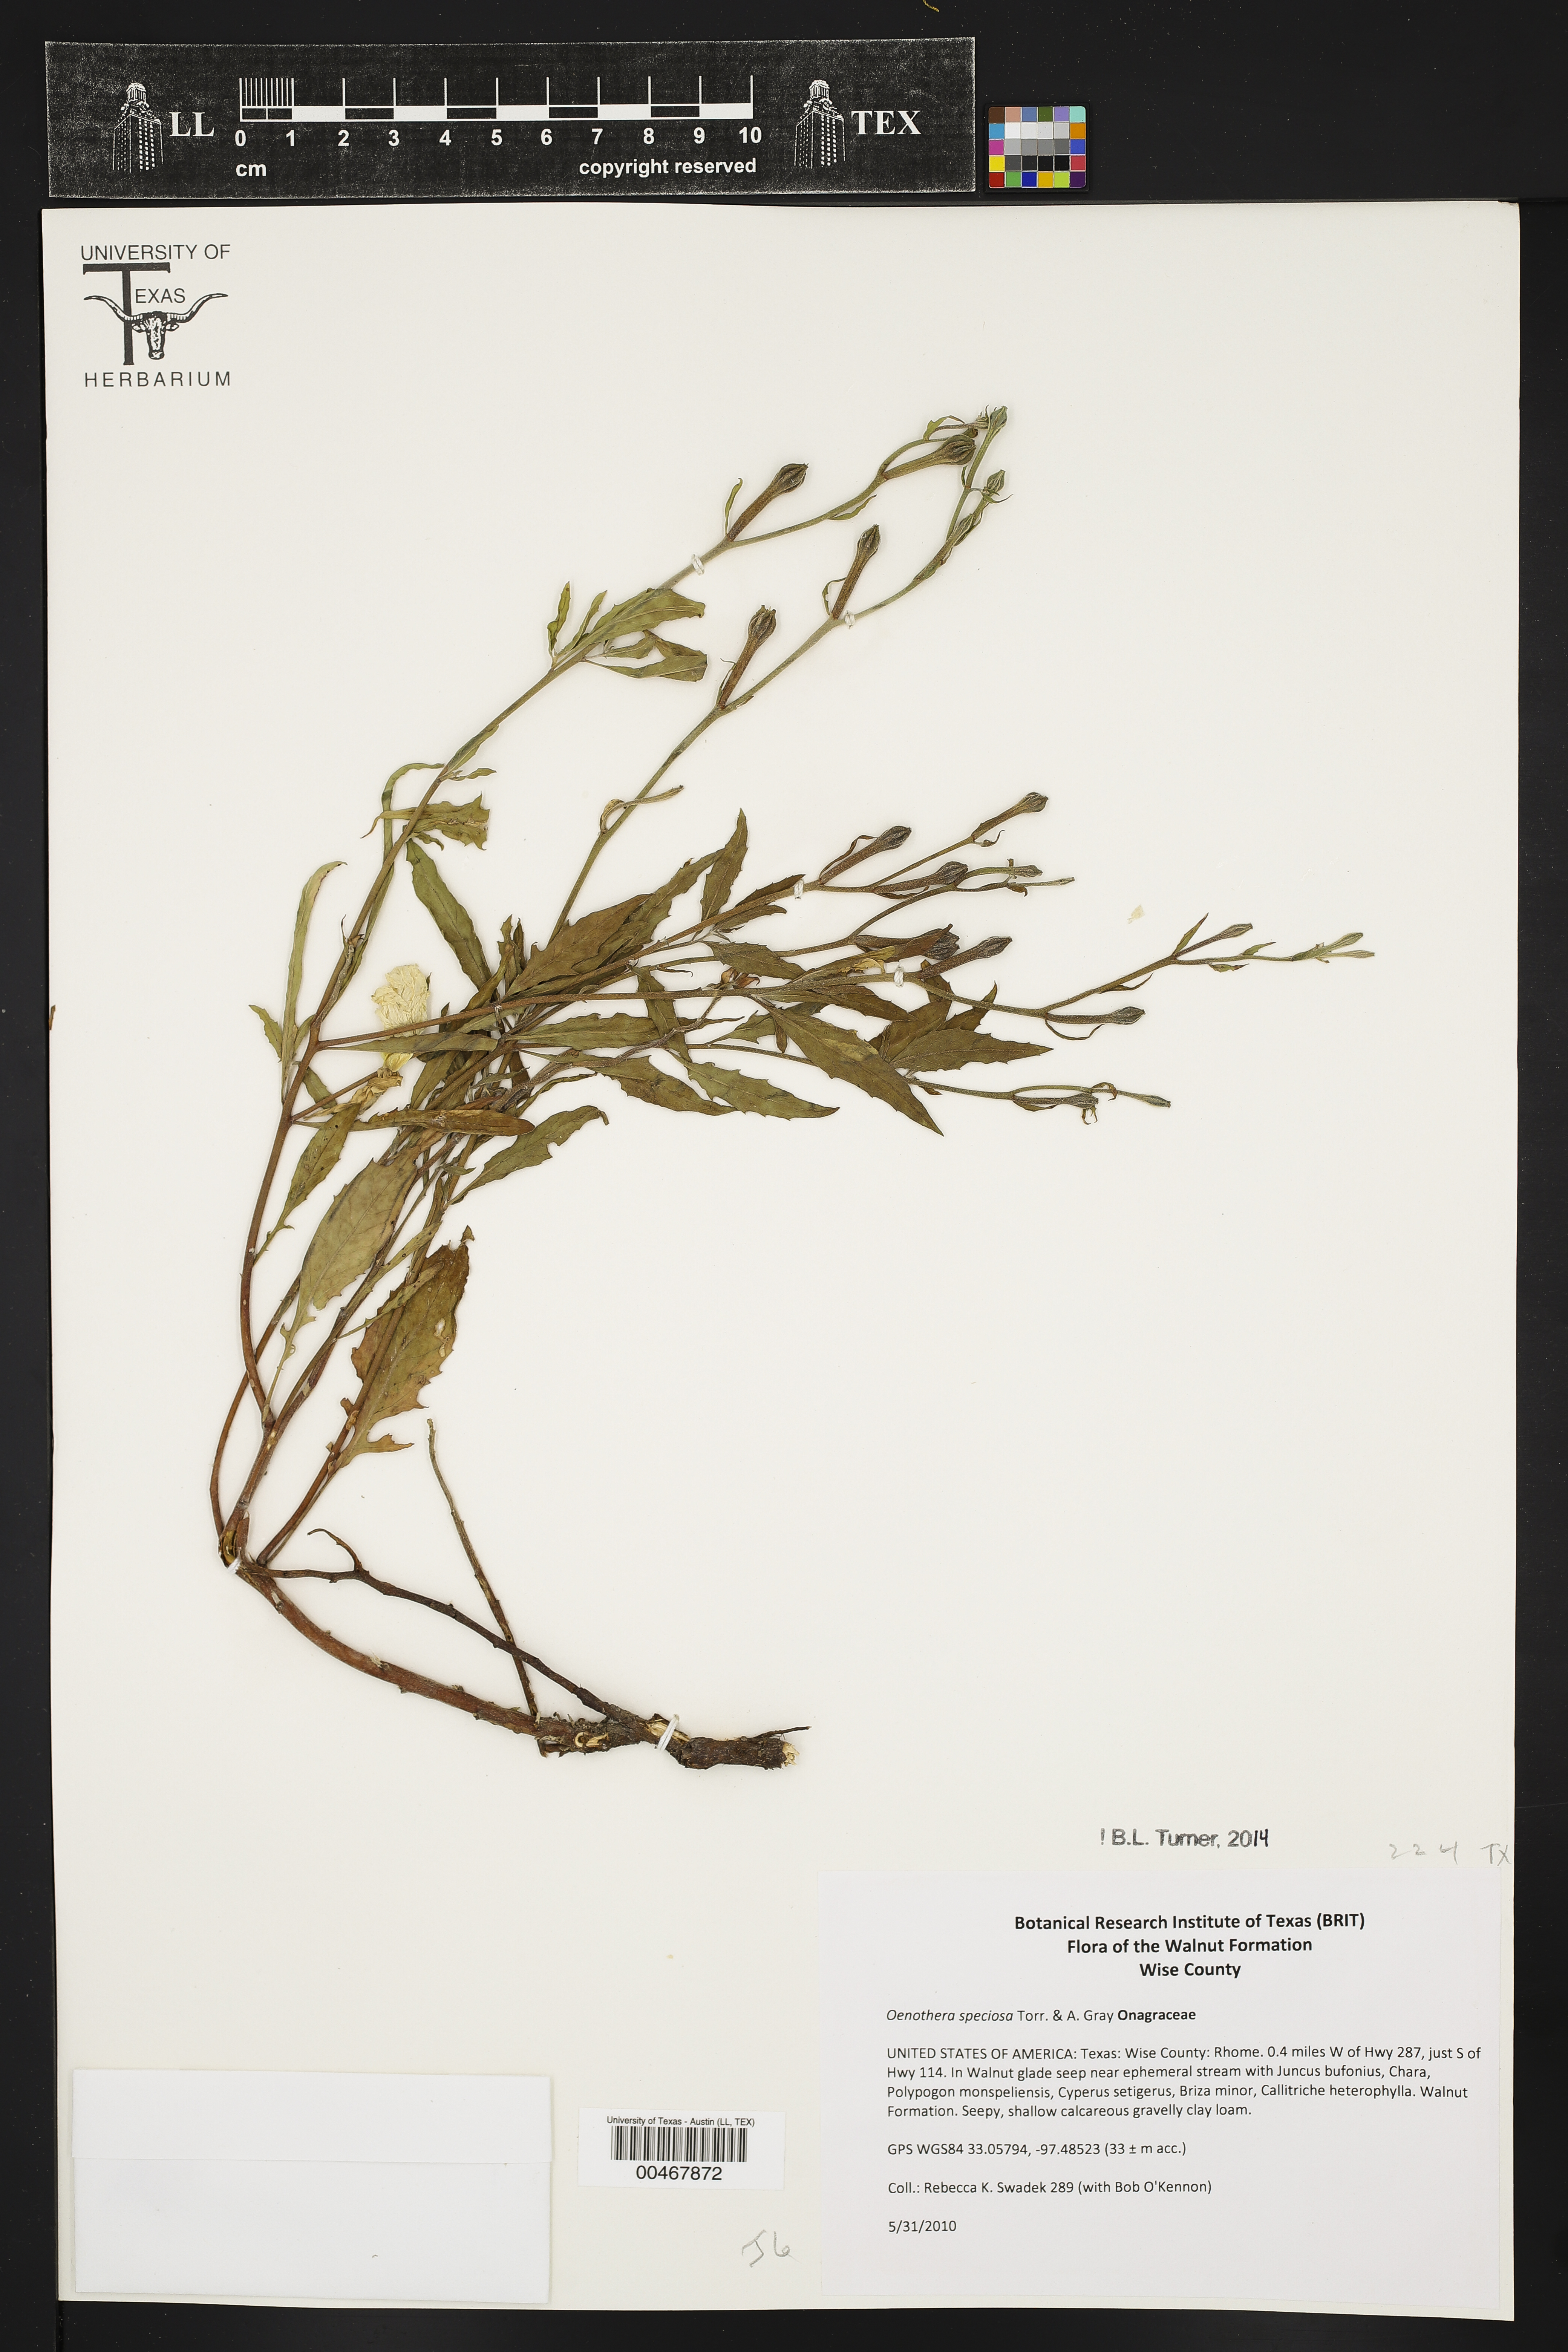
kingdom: Plantae
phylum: Tracheophyta
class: Magnoliopsida
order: Myrtales
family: Onagraceae
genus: Oenothera
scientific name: Oenothera speciosa
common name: White evening-primrose
